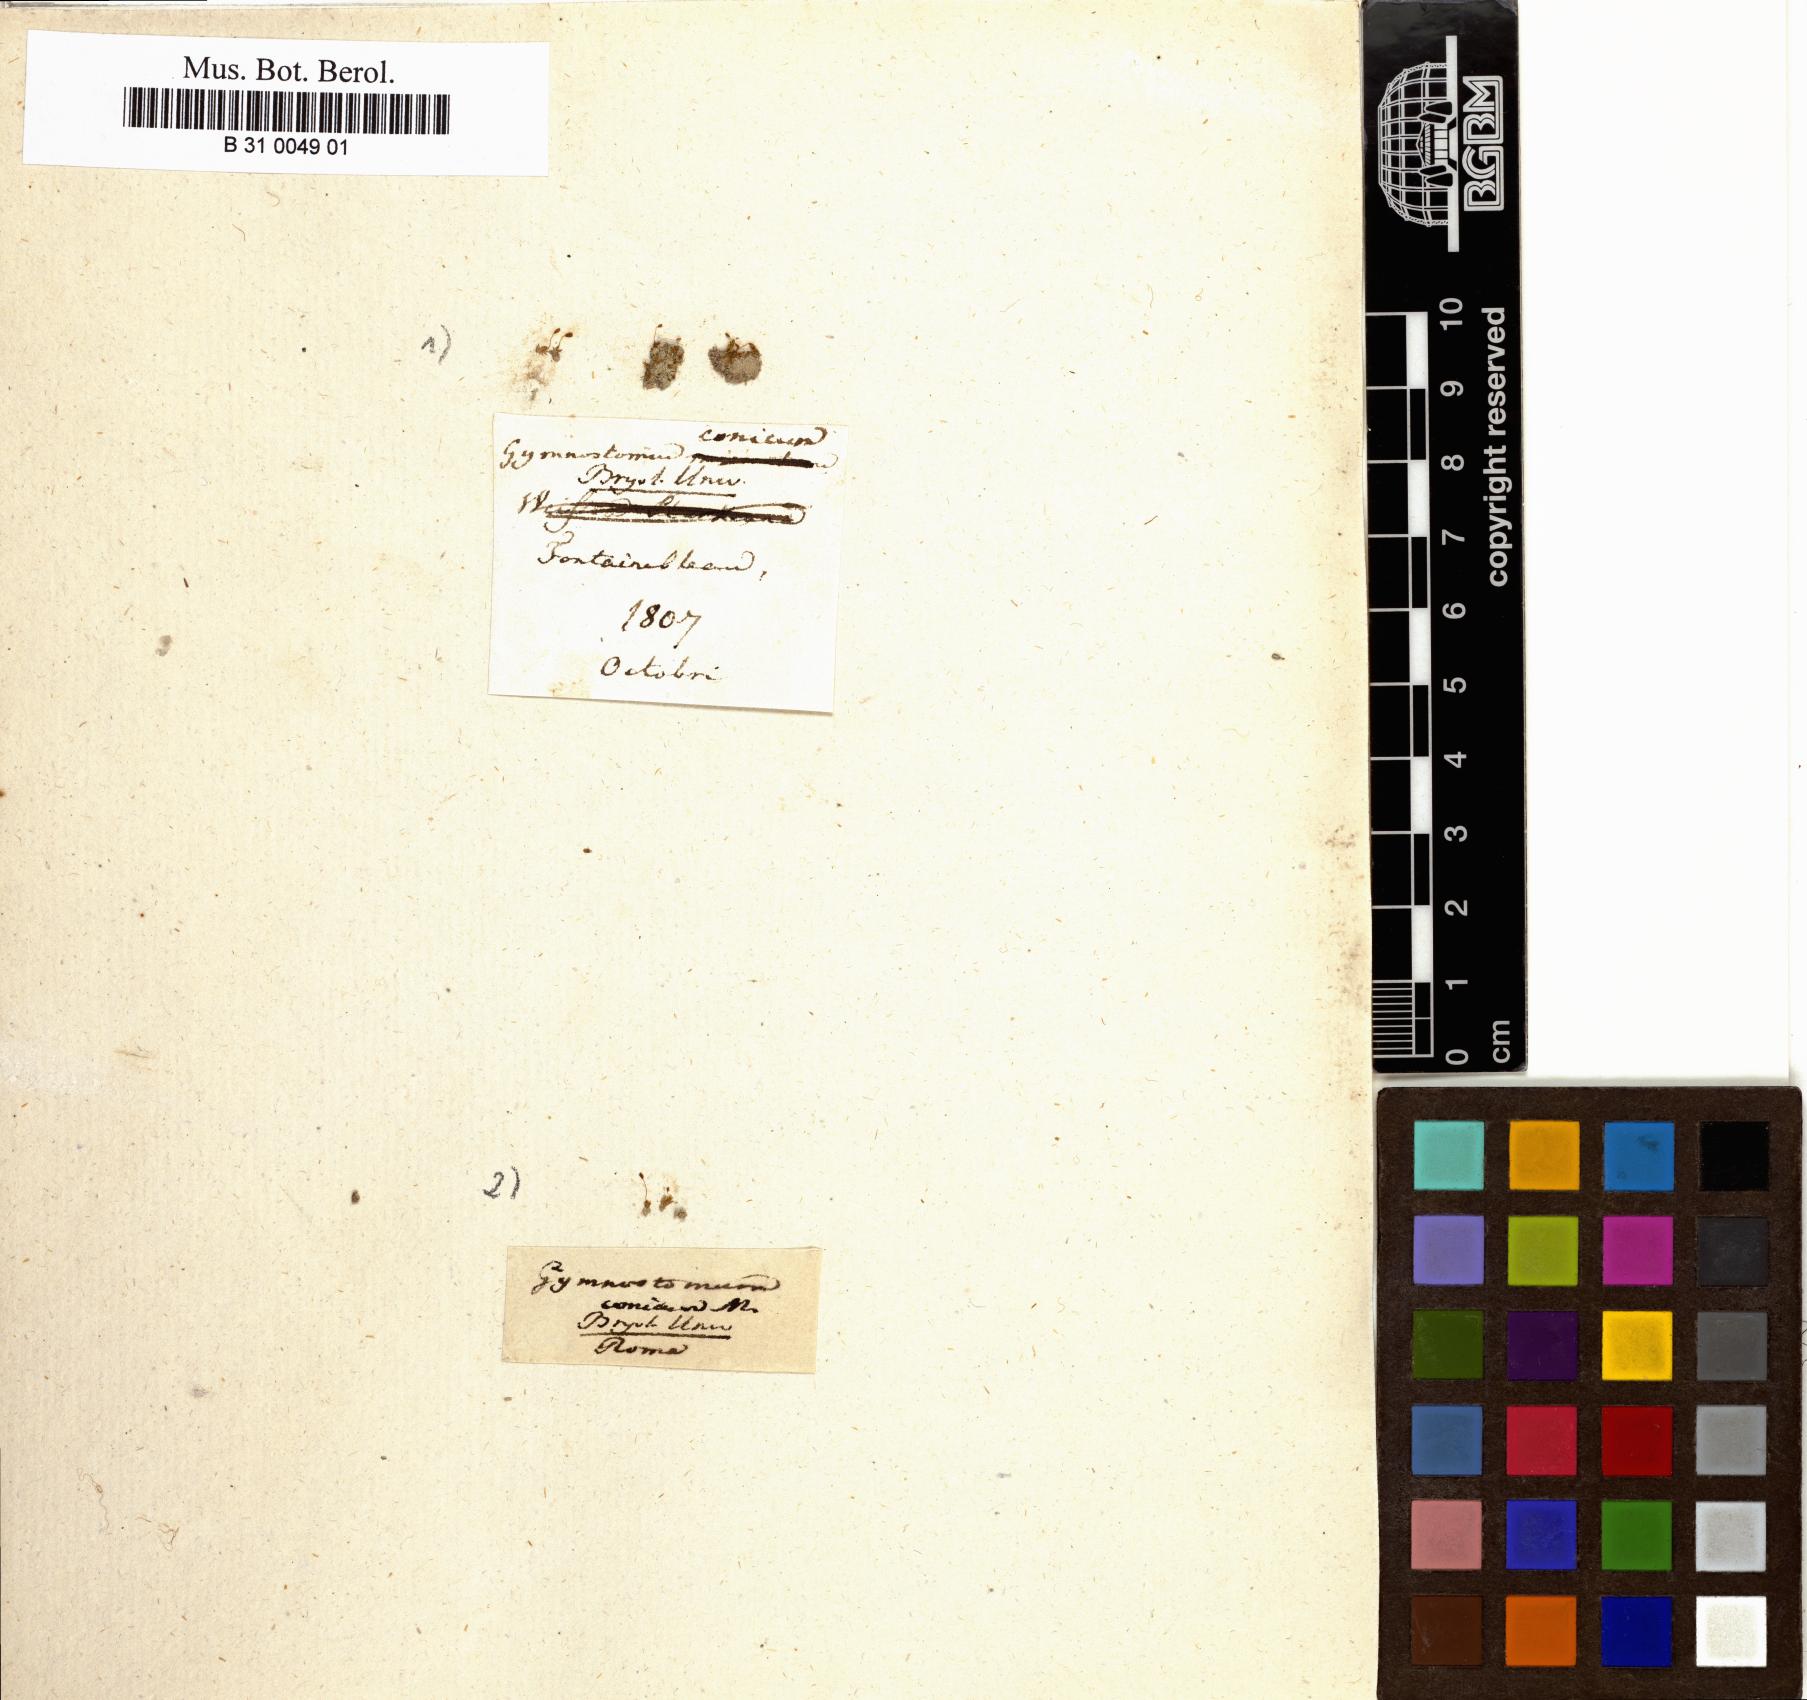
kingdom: Plantae
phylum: Bryophyta
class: Bryopsida
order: Pottiales
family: Pottiaceae
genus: Microbryum
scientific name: Microbryum conicum
